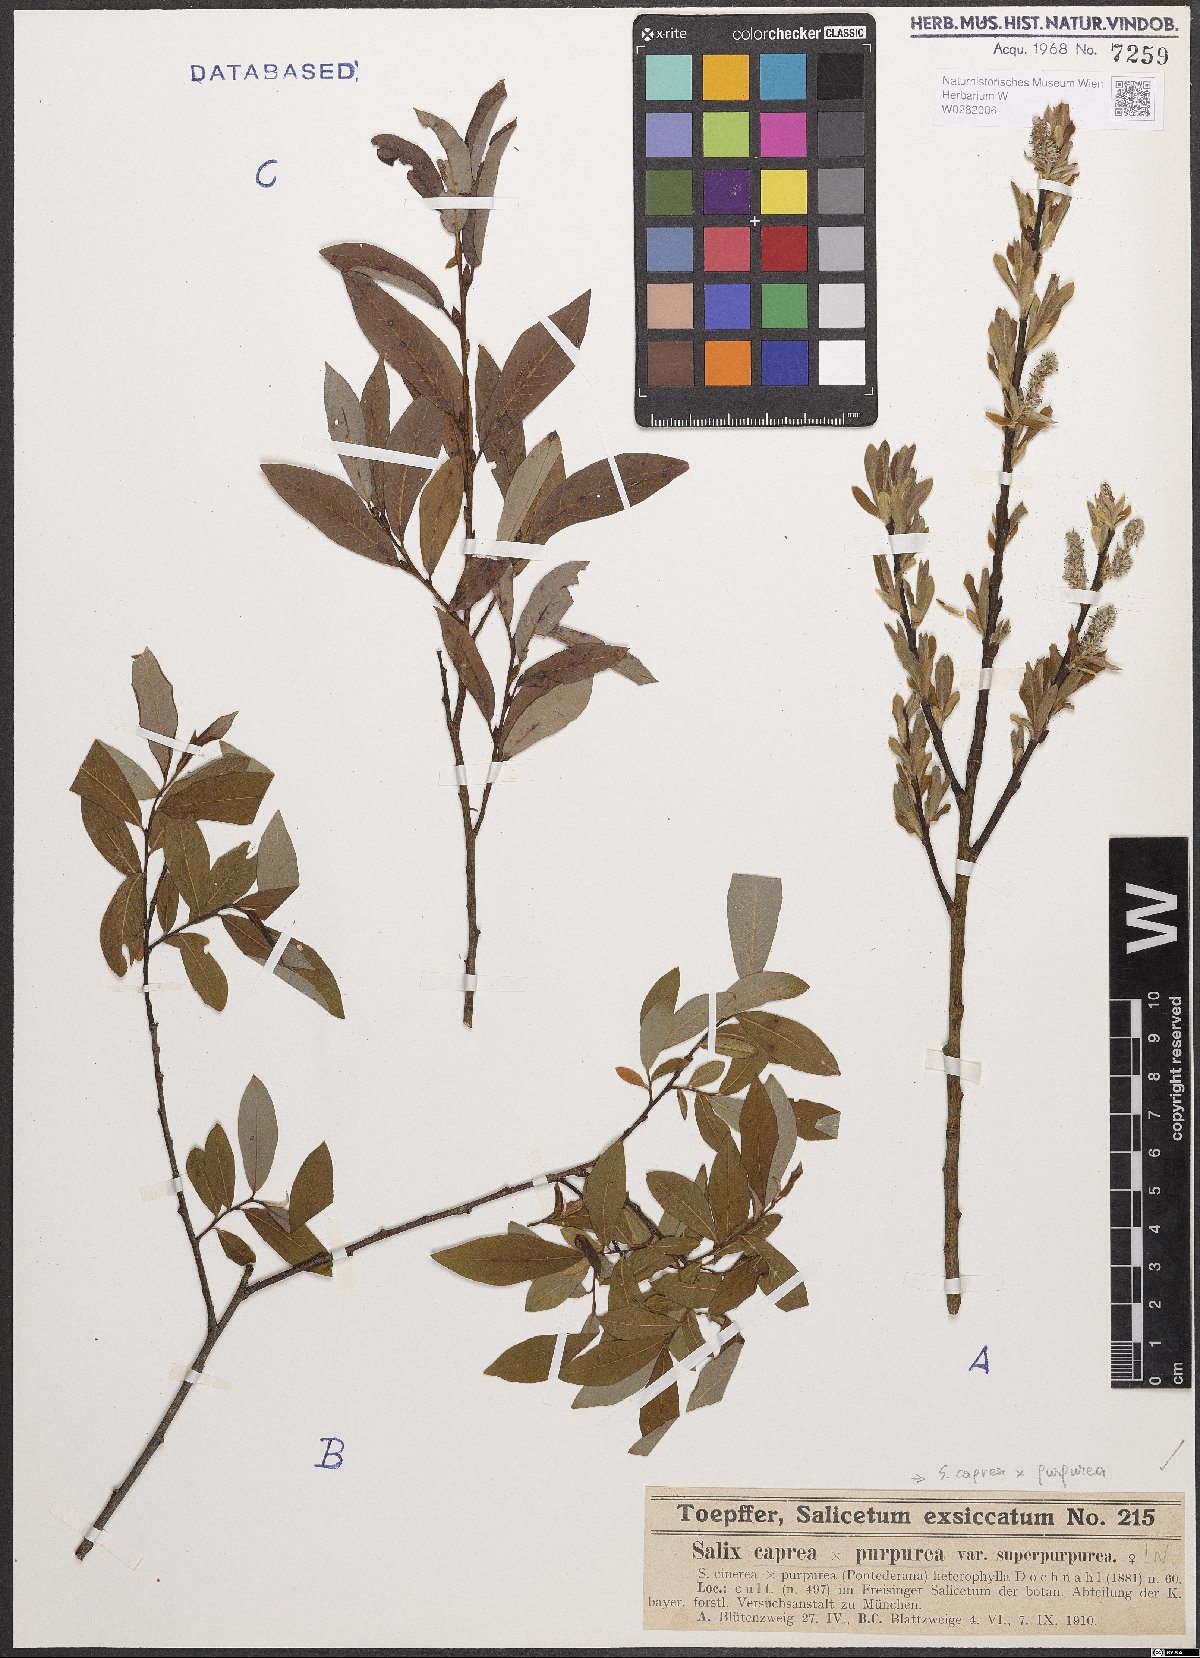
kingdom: Plantae
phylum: Tracheophyta
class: Magnoliopsida
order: Malpighiales
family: Salicaceae
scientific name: Salicaceae
